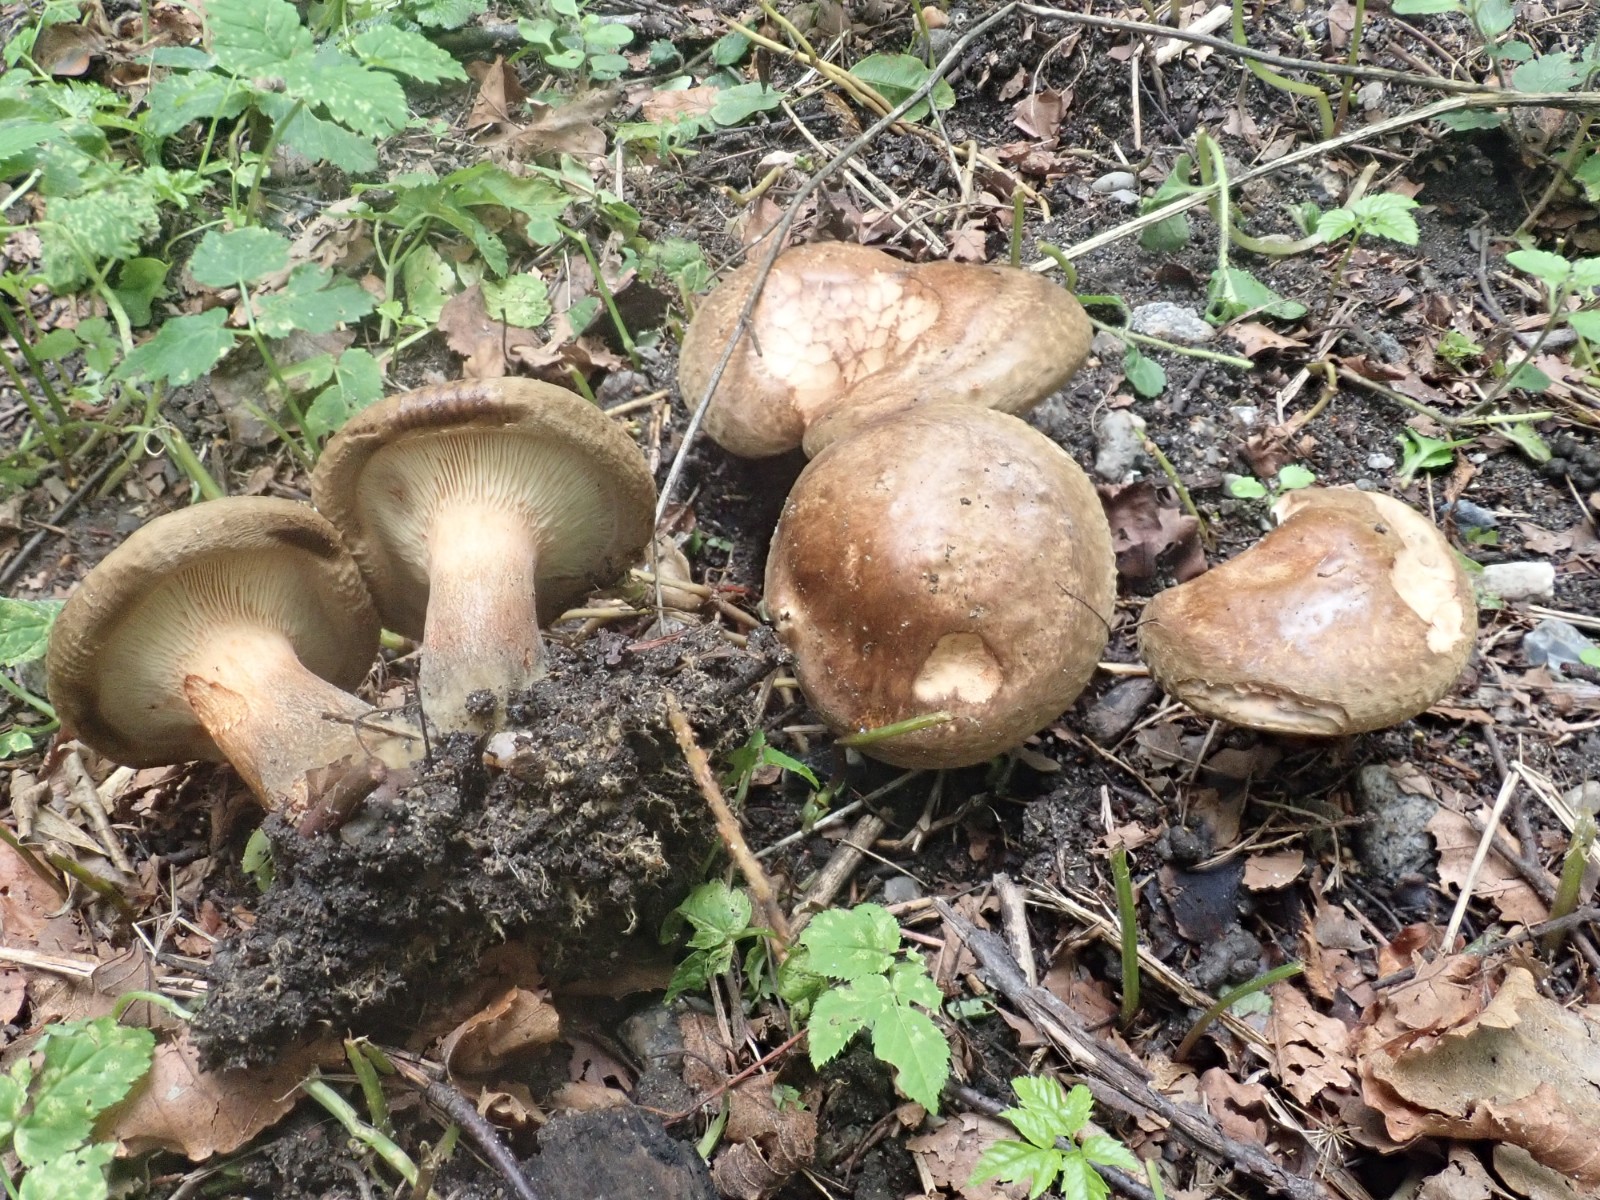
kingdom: Fungi
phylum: Basidiomycota
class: Agaricomycetes
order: Boletales
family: Paxillaceae
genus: Paxillus
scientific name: Paxillus
